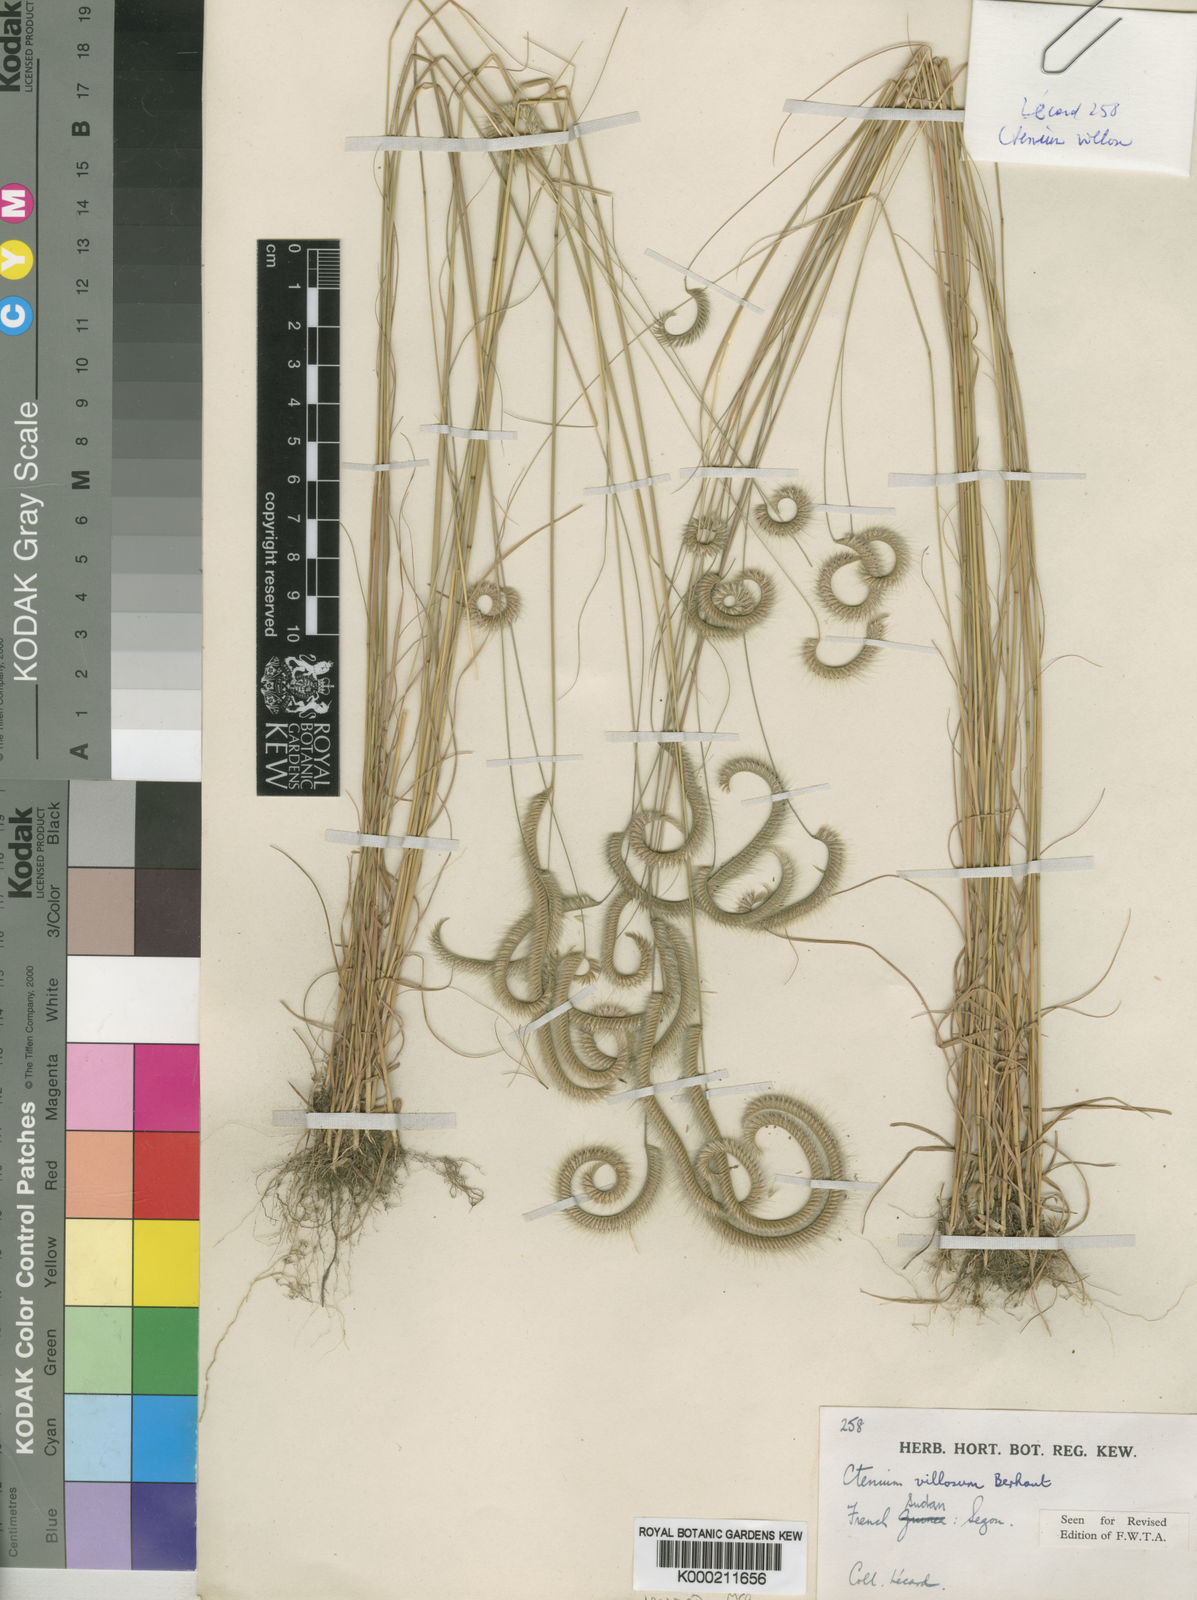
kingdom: Plantae
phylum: Tracheophyta
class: Liliopsida
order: Poales
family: Poaceae
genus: Ctenium
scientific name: Ctenium villosum
